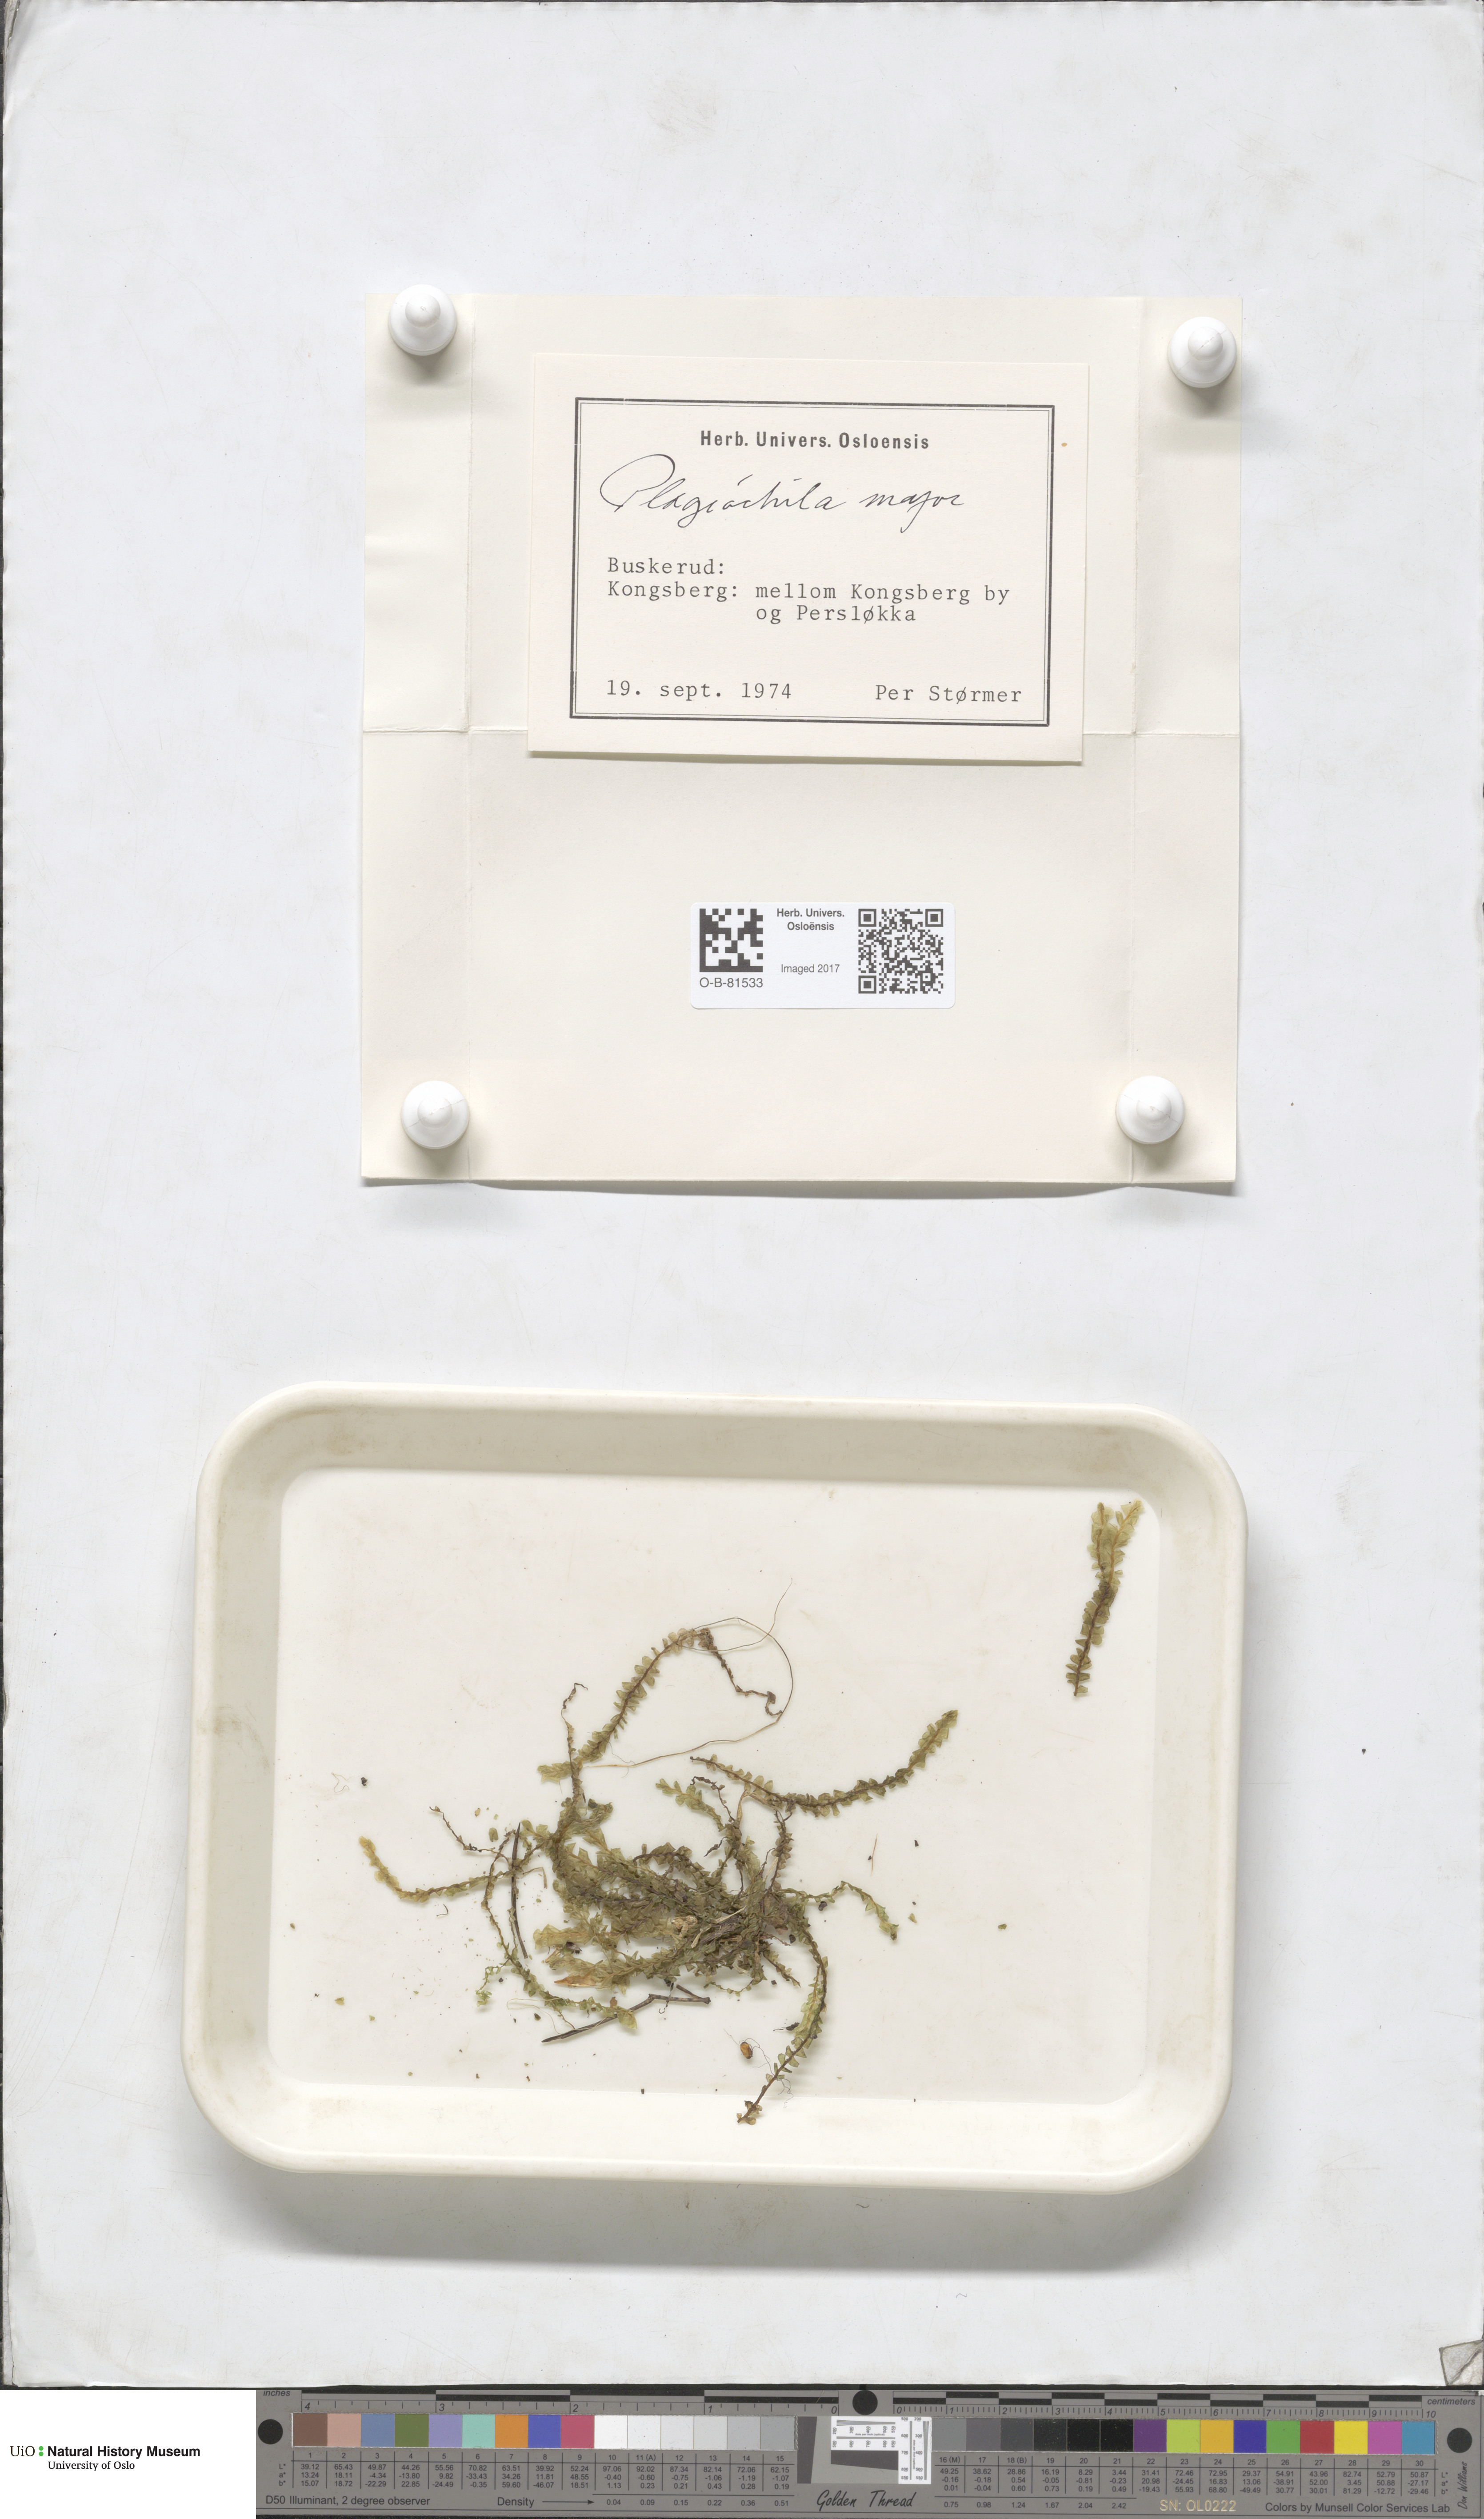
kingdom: Plantae
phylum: Marchantiophyta
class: Jungermanniopsida
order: Jungermanniales
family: Plagiochilaceae
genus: Plagiochila
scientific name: Plagiochila asplenioides
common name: Greater featherwort
